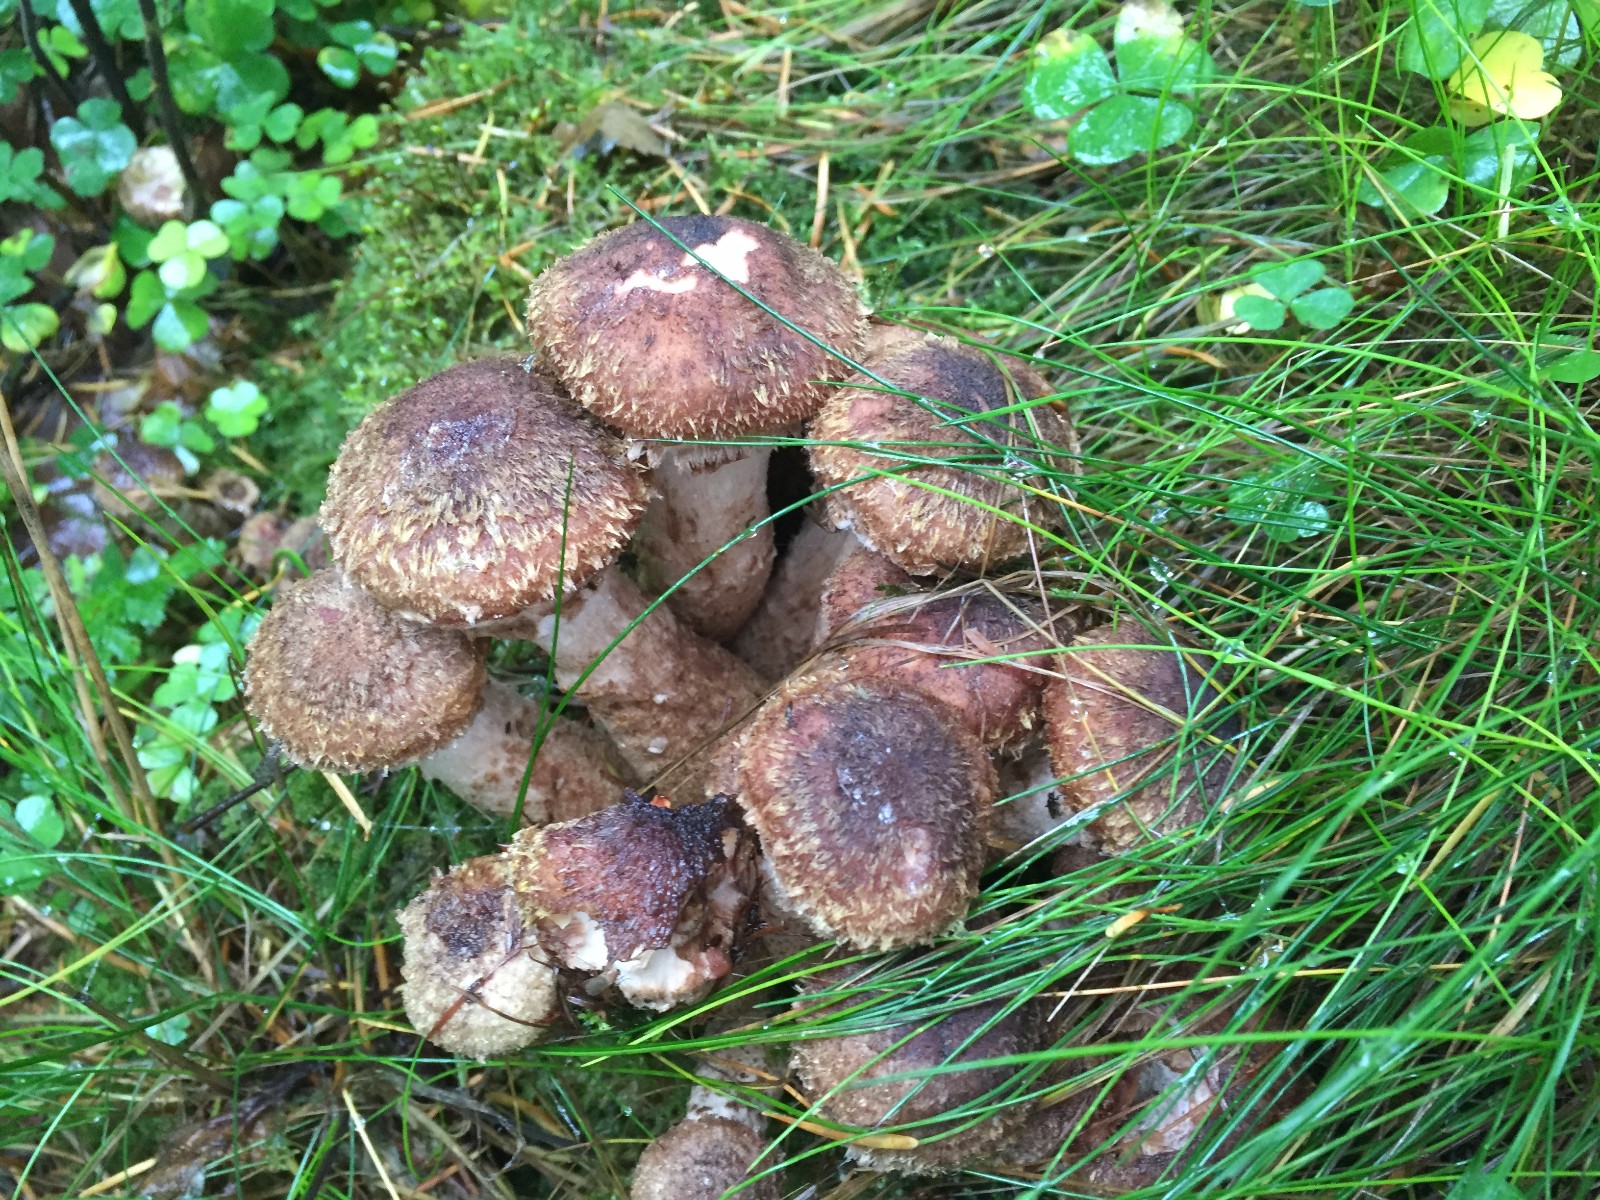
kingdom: Fungi
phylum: Basidiomycota
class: Agaricomycetes
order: Agaricales
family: Physalacriaceae
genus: Armillaria
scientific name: Armillaria ostoyae
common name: mørk honningsvamp
